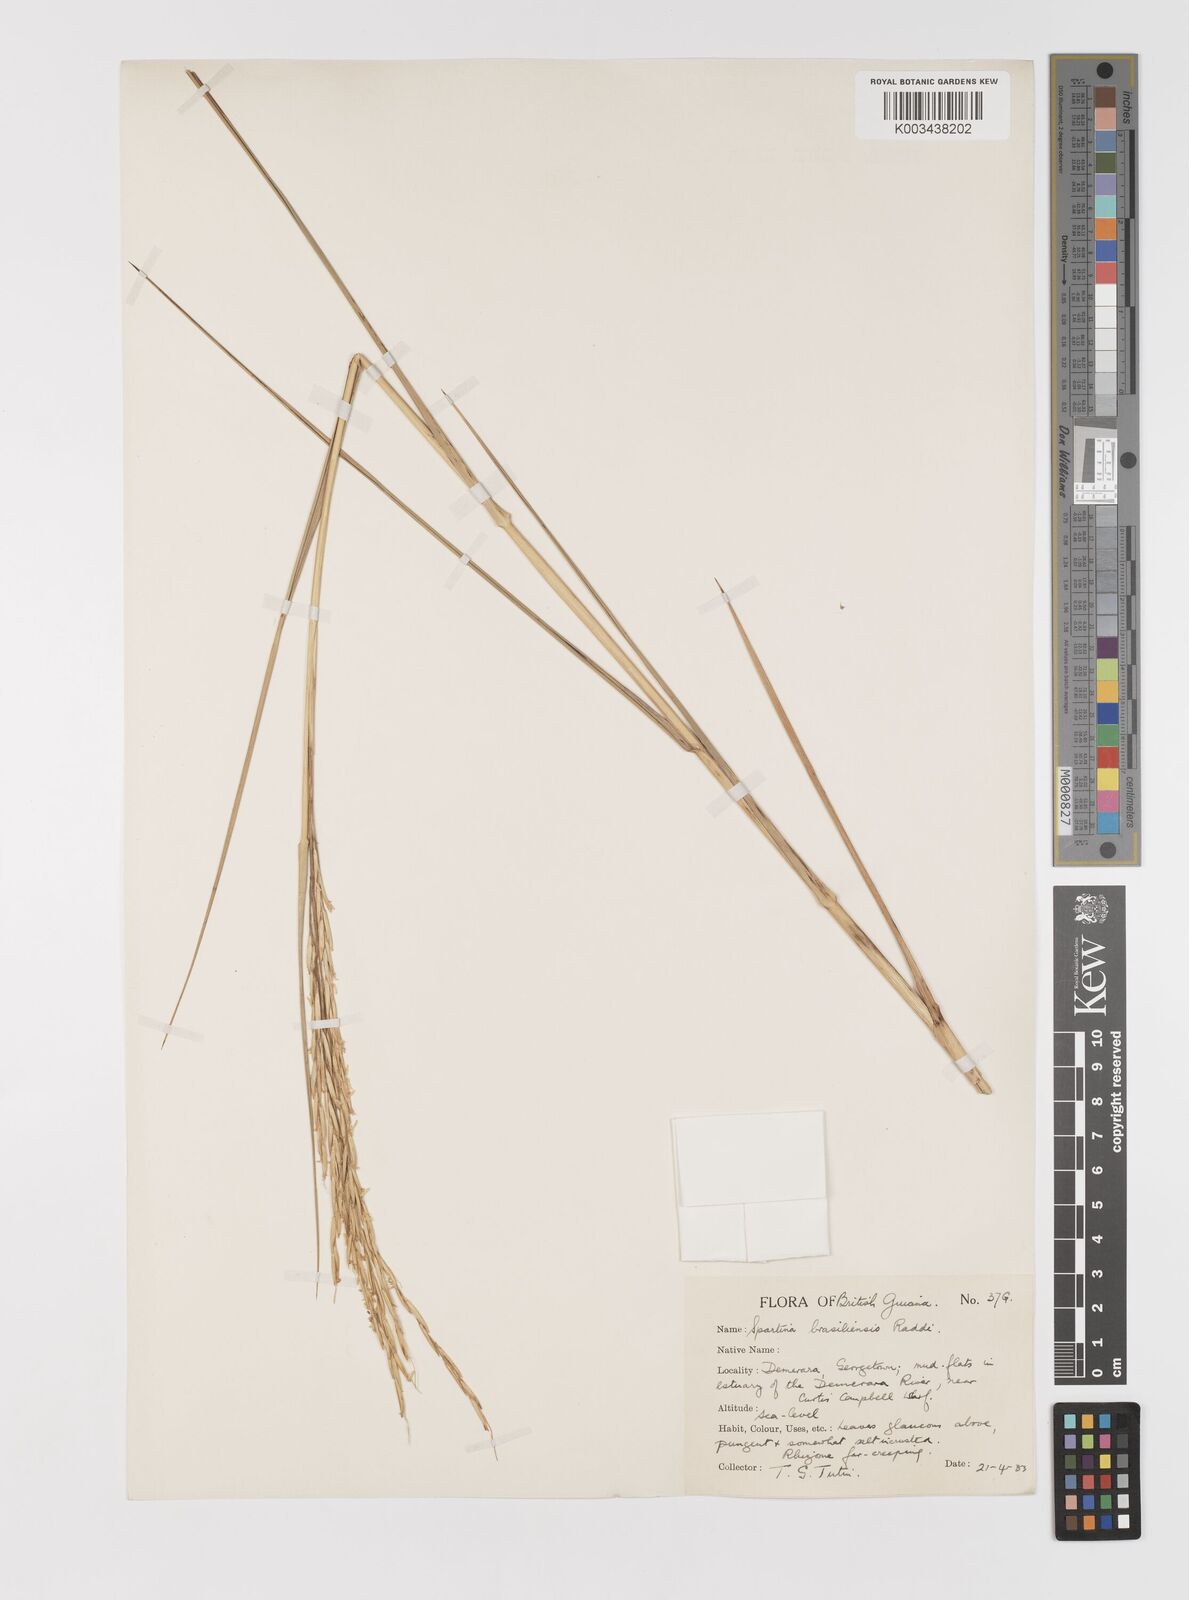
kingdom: Plantae
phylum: Tracheophyta
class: Liliopsida
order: Poales
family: Poaceae
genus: Sporobolus
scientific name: Sporobolus alterniflorus
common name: Atlantic cordgrass
